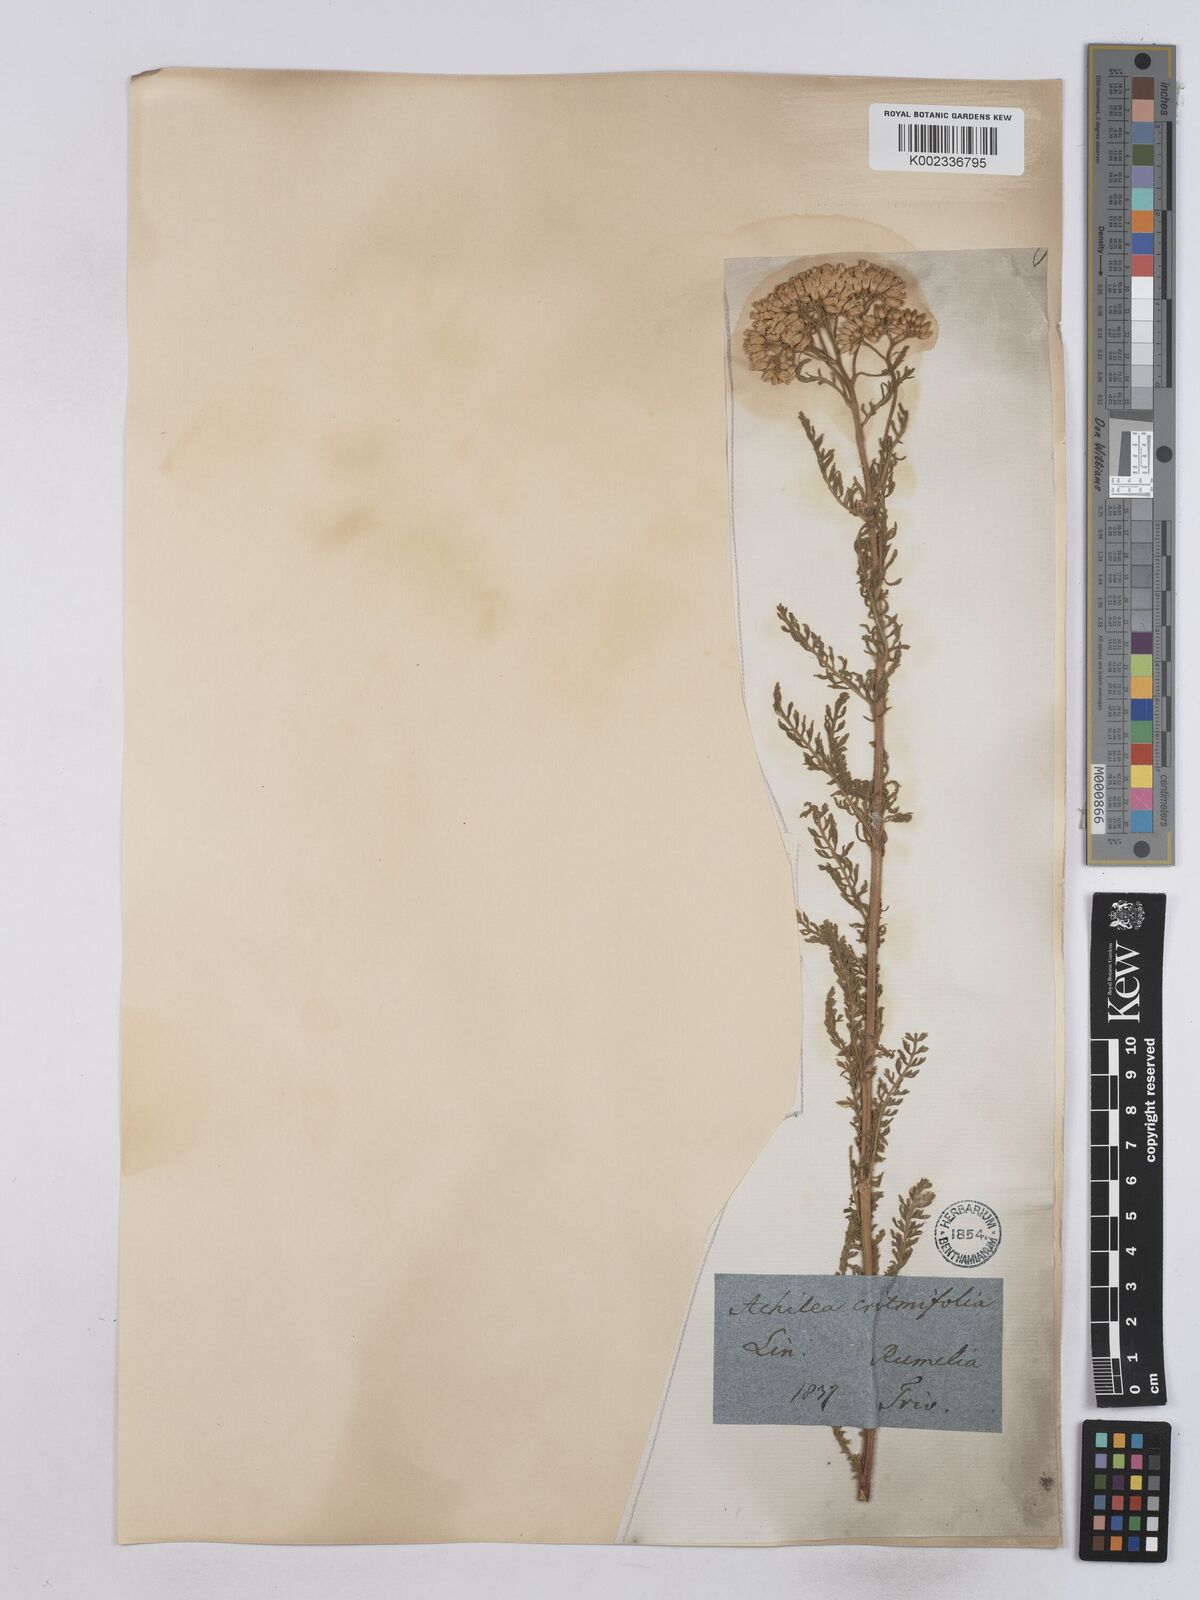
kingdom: Plantae
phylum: Tracheophyta
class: Magnoliopsida
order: Asterales
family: Asteraceae
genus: Achillea
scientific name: Achillea crithmifolia
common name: Yarrow
